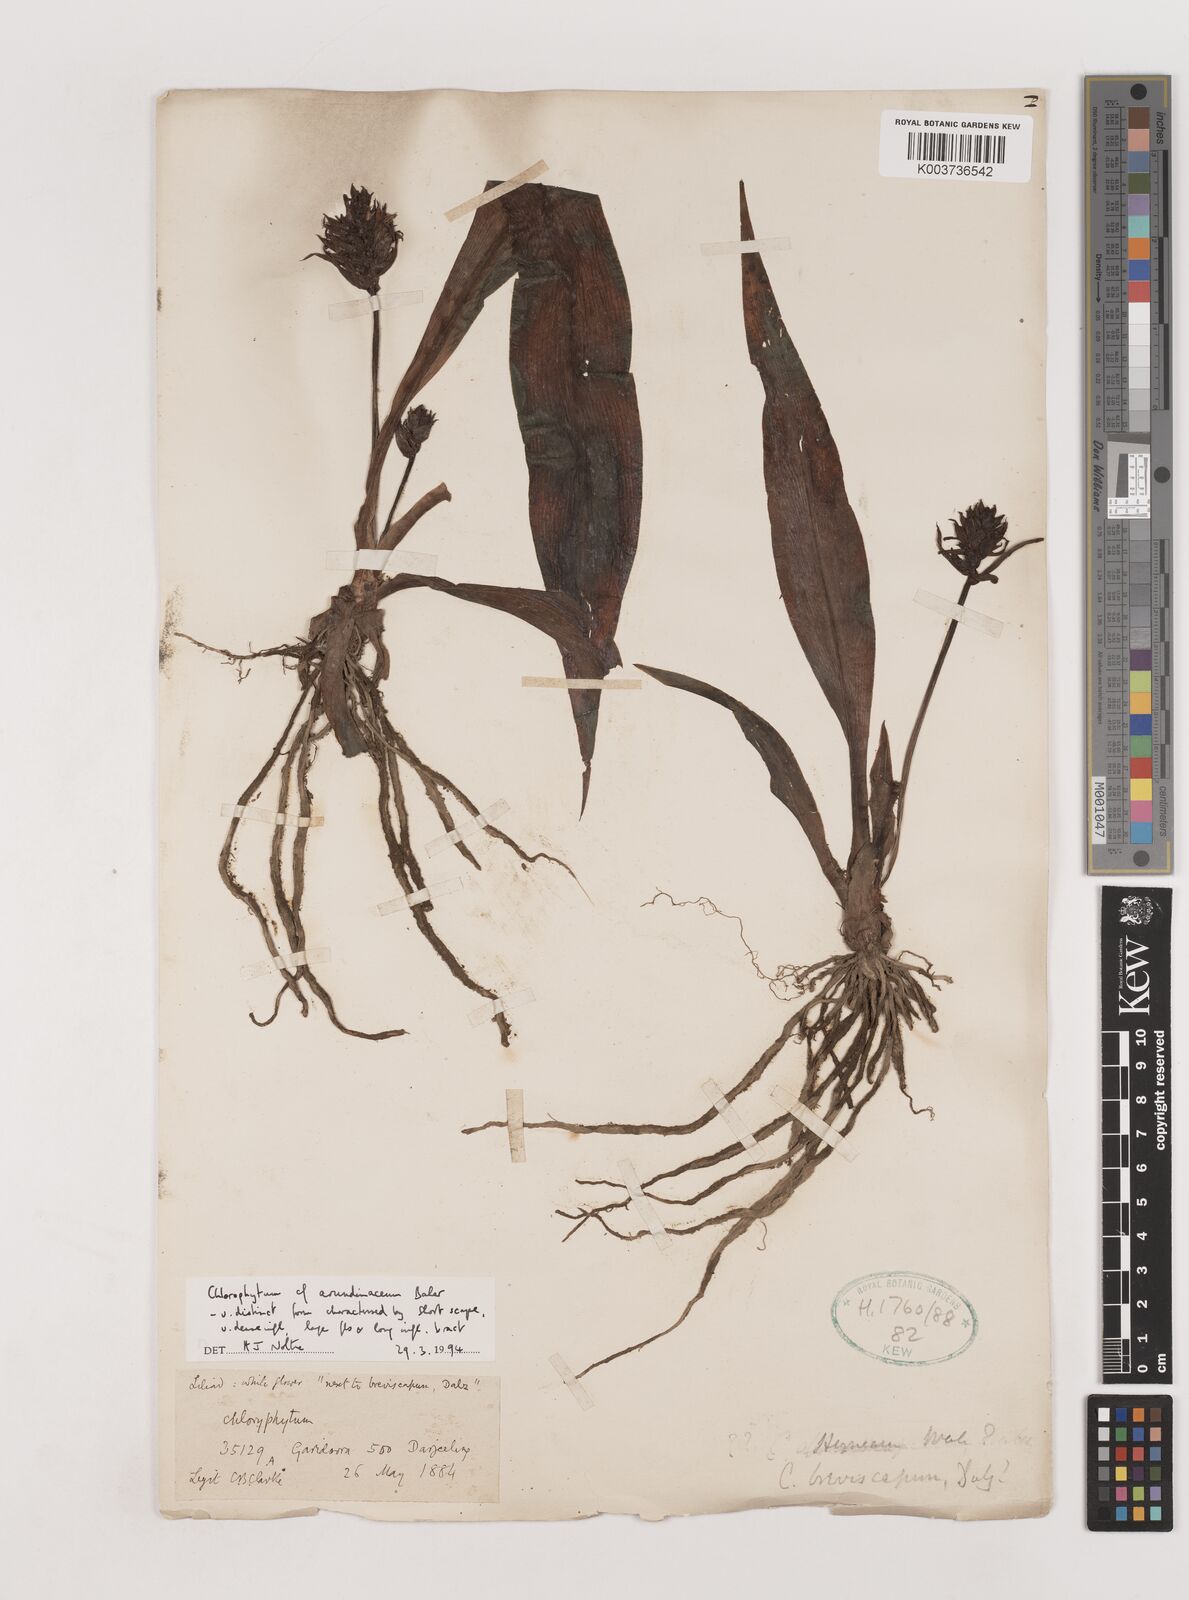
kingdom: Plantae
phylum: Tracheophyta
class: Liliopsida
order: Asparagales
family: Asparagaceae
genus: Chlorophytum
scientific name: Chlorophytum arundinaceum
